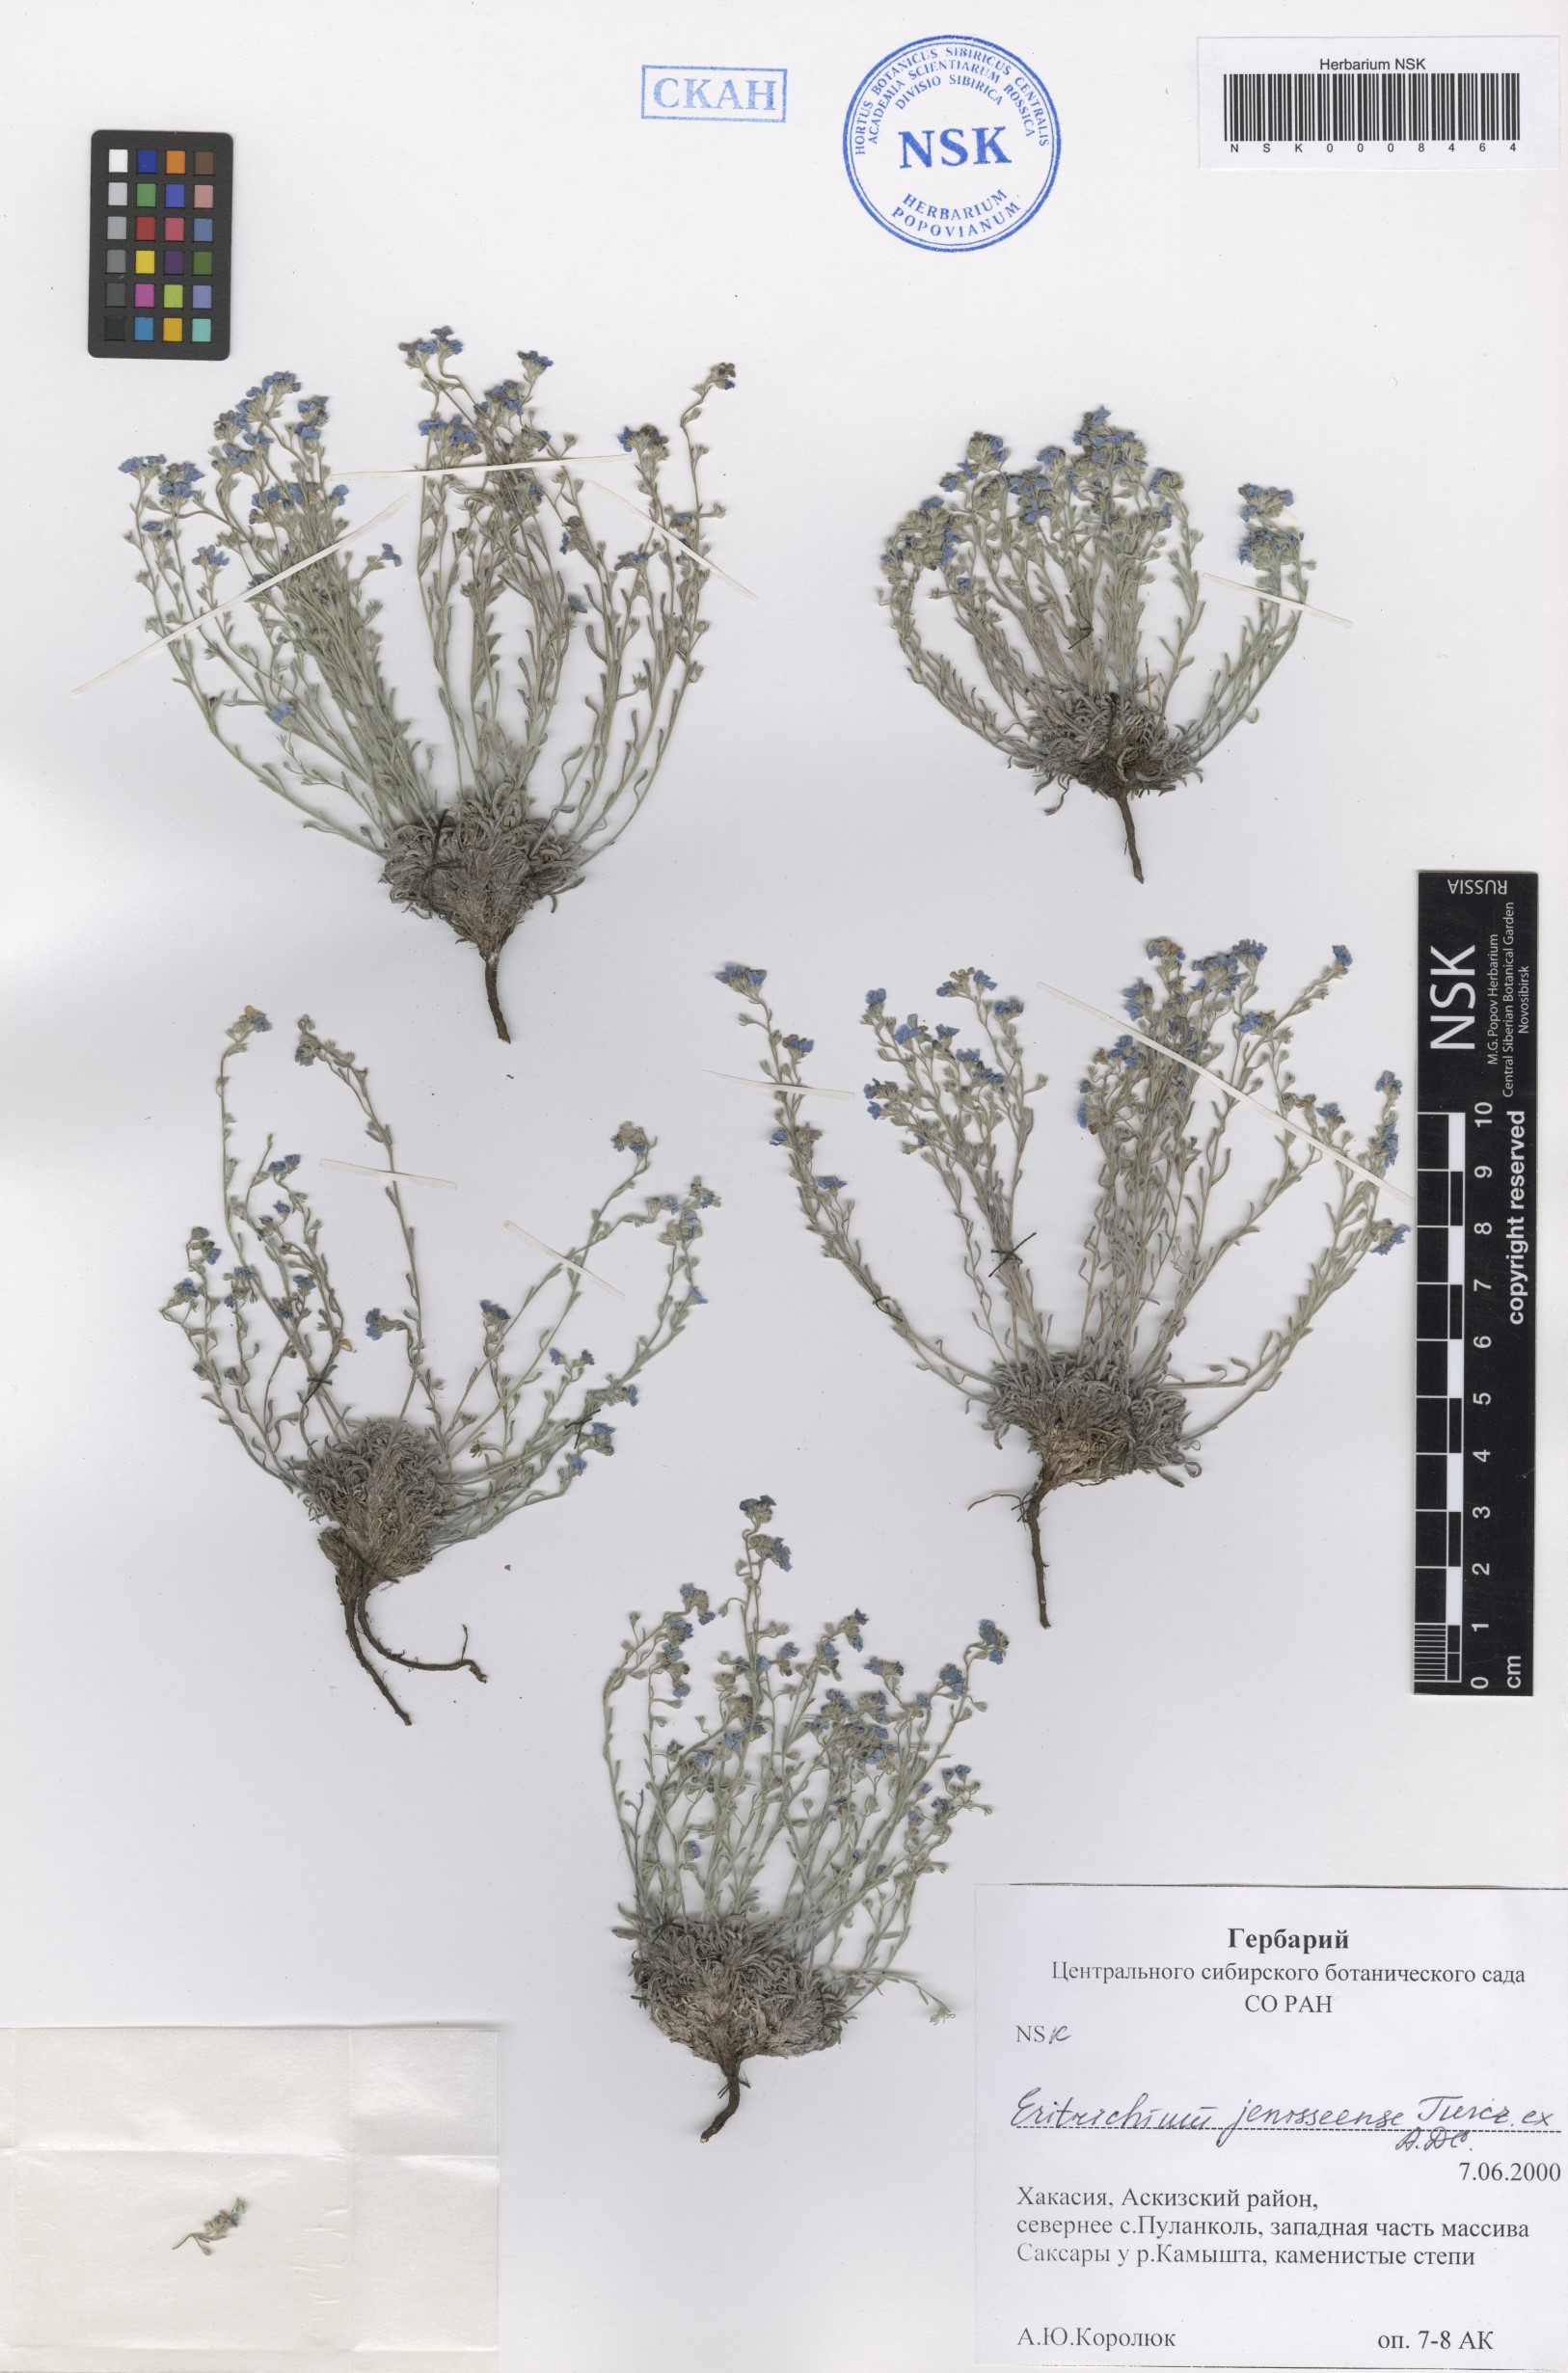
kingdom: Plantae
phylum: Tracheophyta
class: Magnoliopsida
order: Boraginales
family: Boraginaceae
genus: Eritrichium
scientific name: Eritrichium jenisseense
